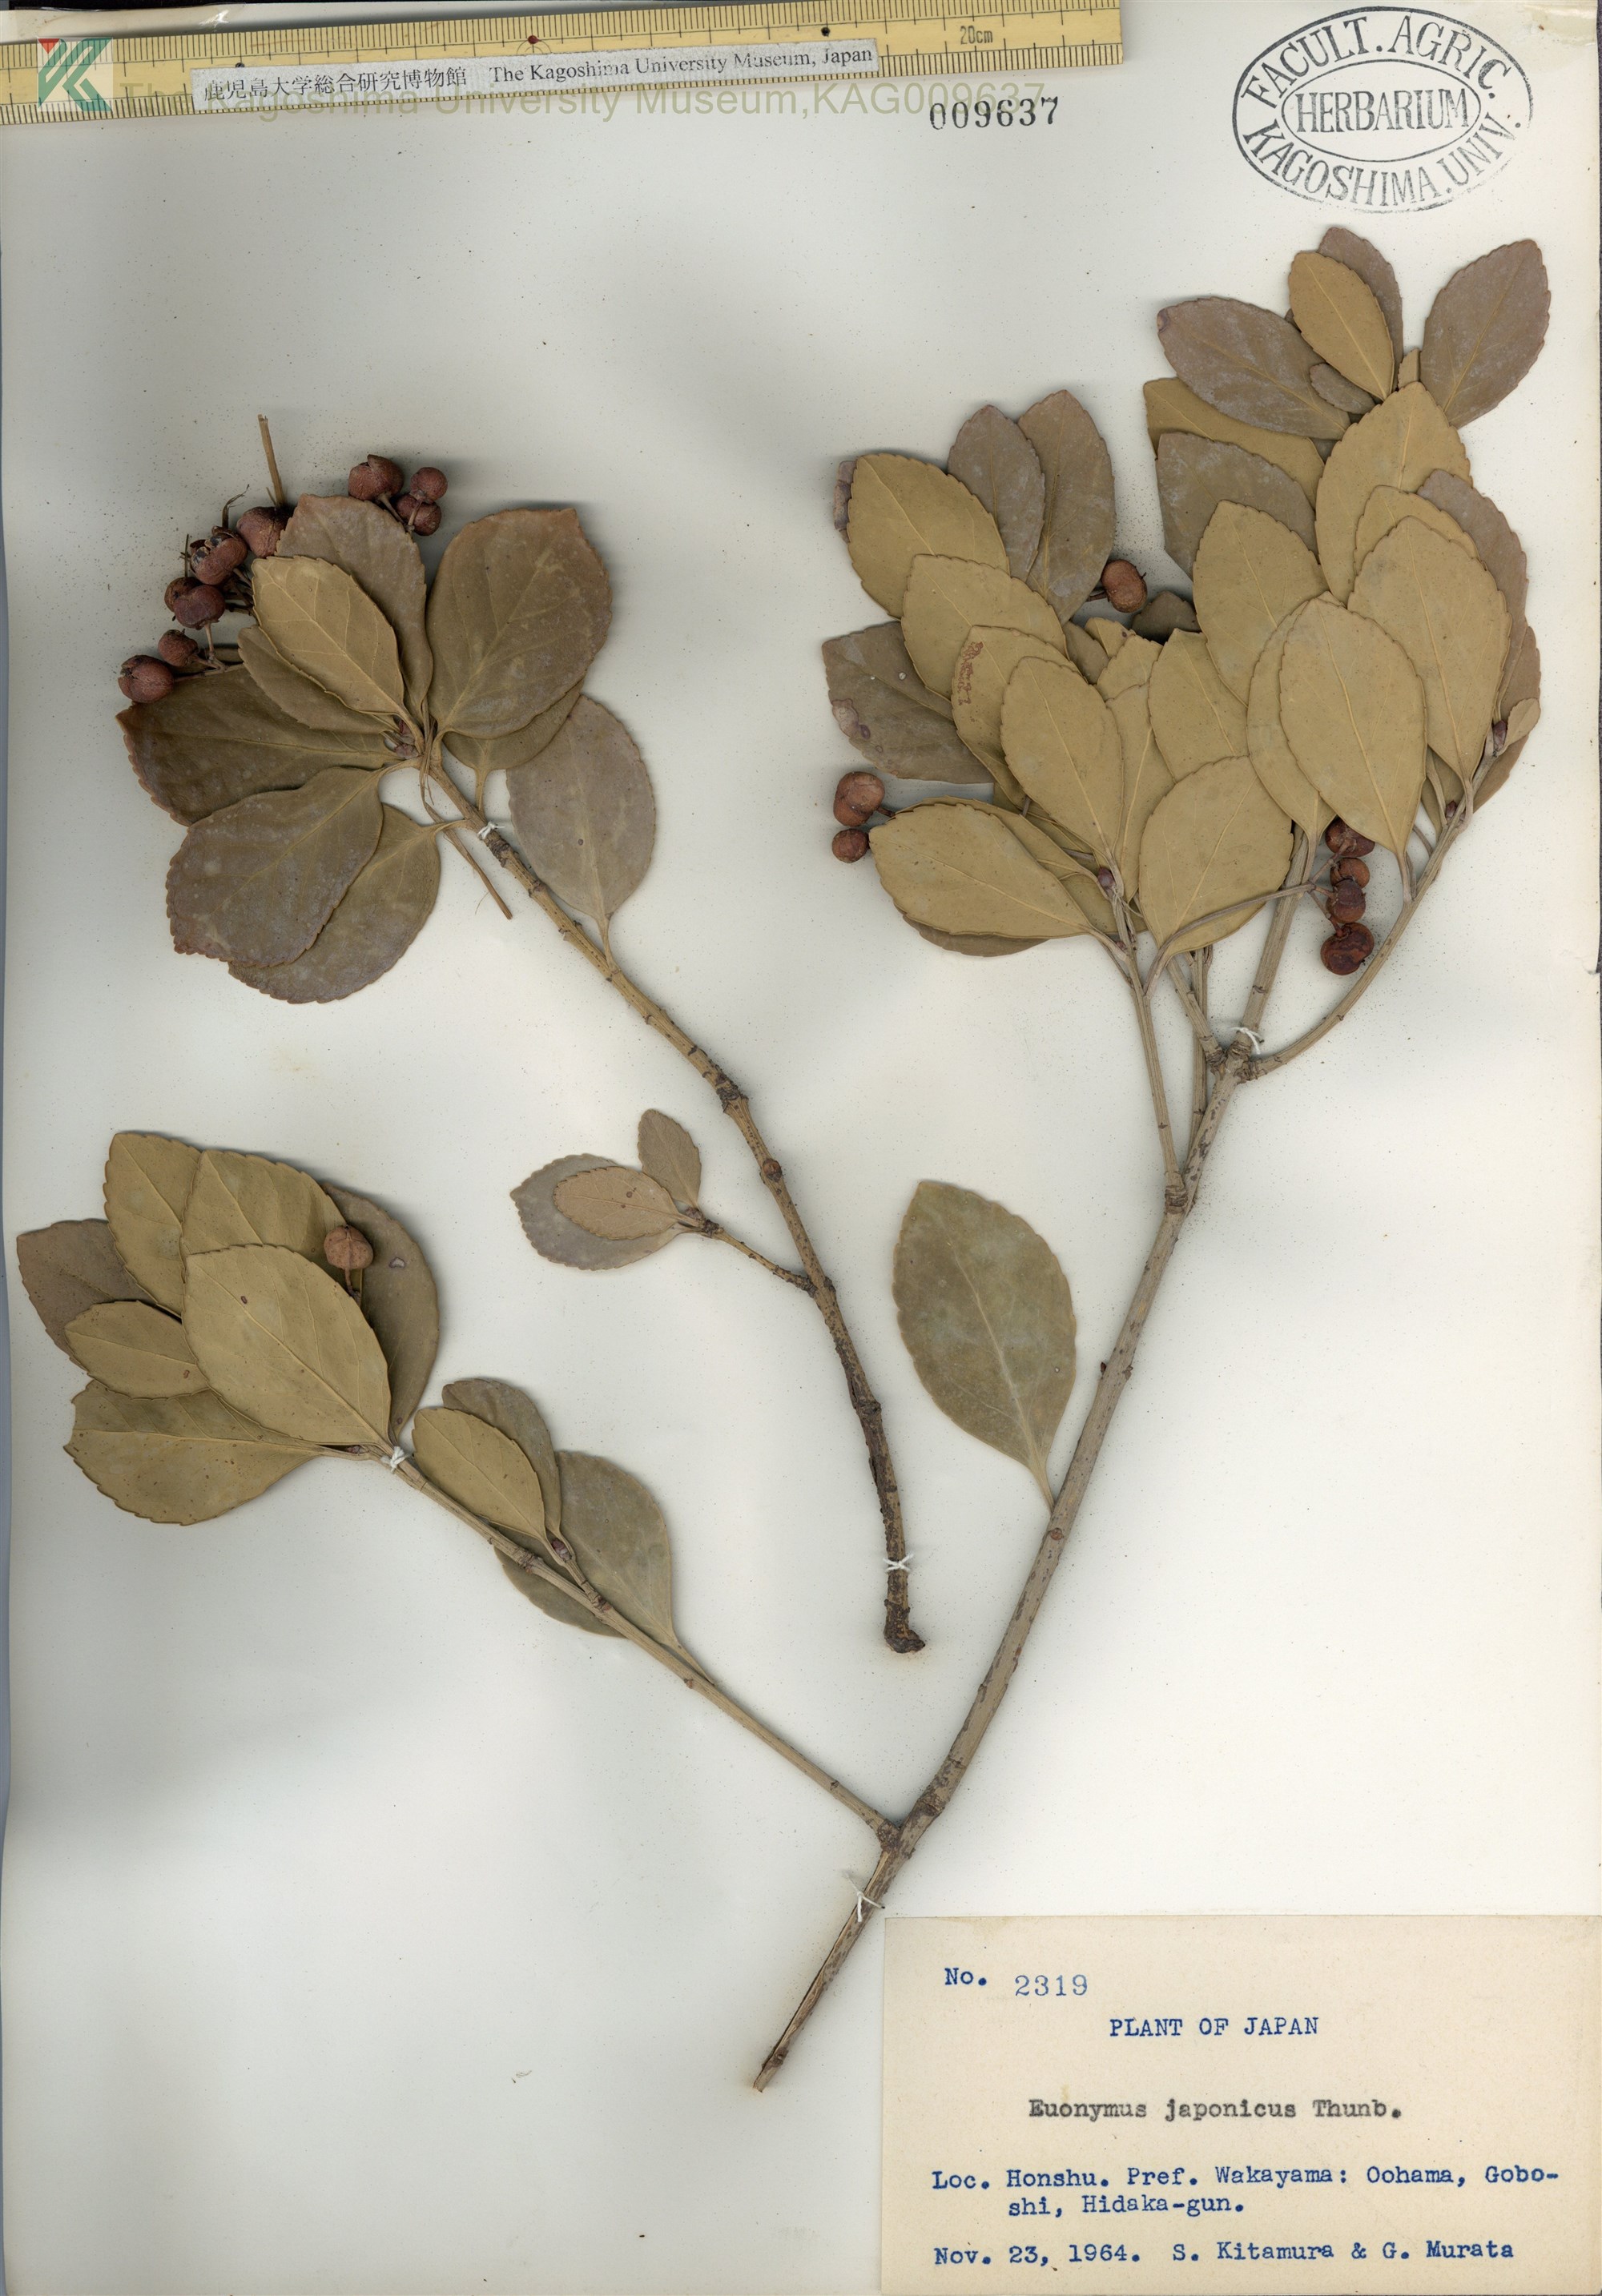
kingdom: Plantae
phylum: Tracheophyta
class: Magnoliopsida
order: Celastrales
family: Celastraceae
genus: Euonymus
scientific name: Euonymus japonicus
